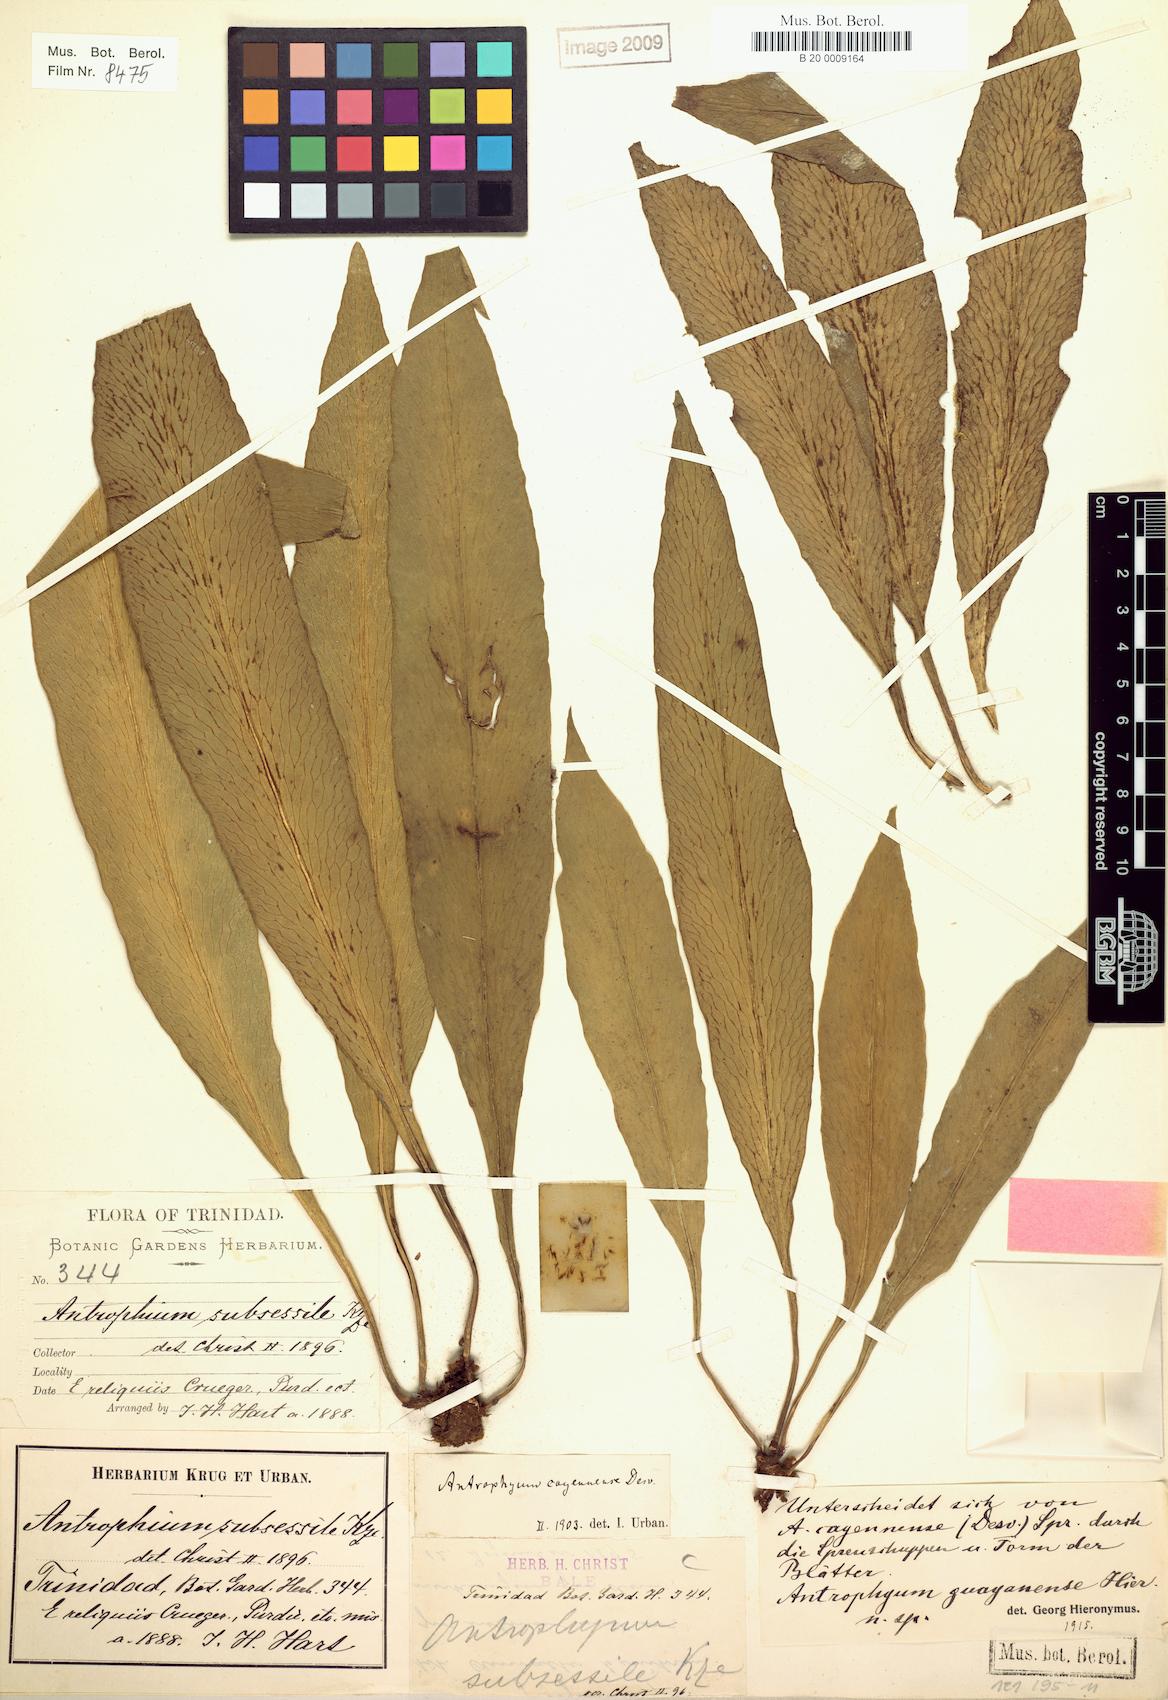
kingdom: Plantae
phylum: Tracheophyta
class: Polypodiopsida
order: Polypodiales
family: Pteridaceae
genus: Polytaenium
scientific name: Polytaenium guayanense
